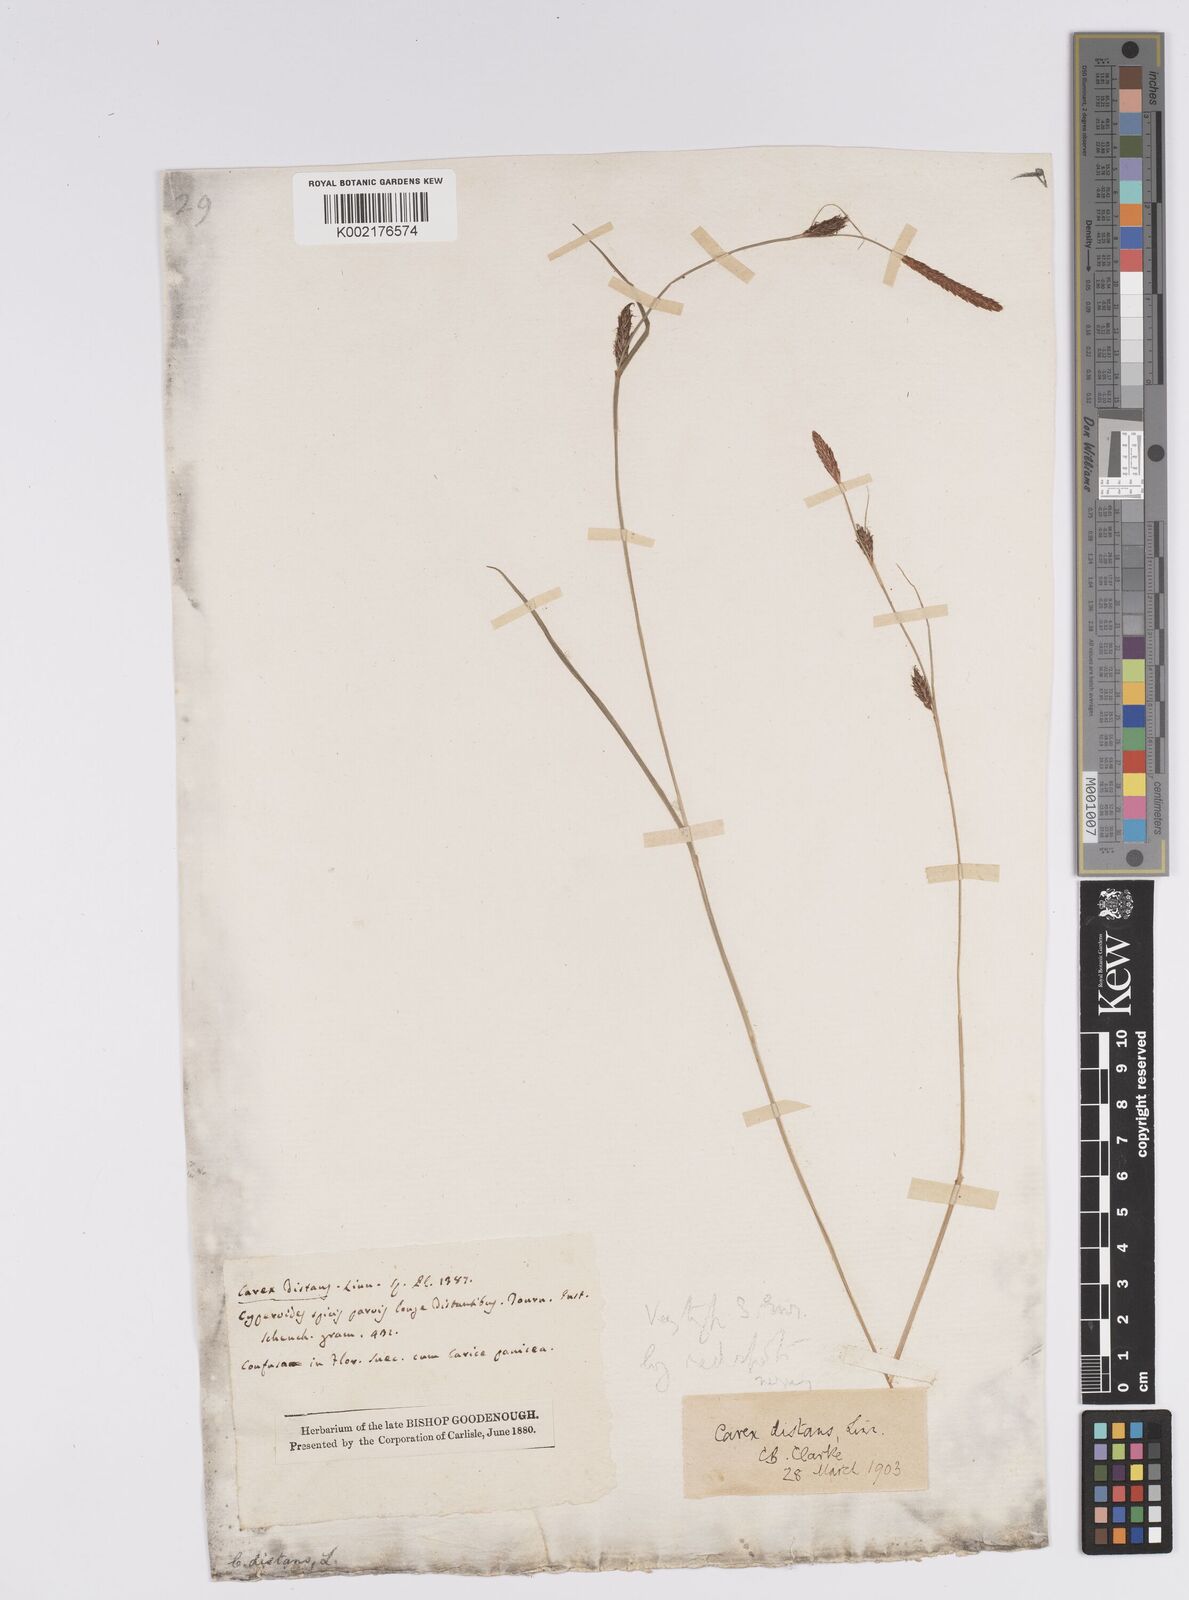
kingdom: Plantae
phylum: Tracheophyta
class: Liliopsida
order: Poales
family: Cyperaceae
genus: Carex
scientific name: Carex distans
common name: Distant sedge
